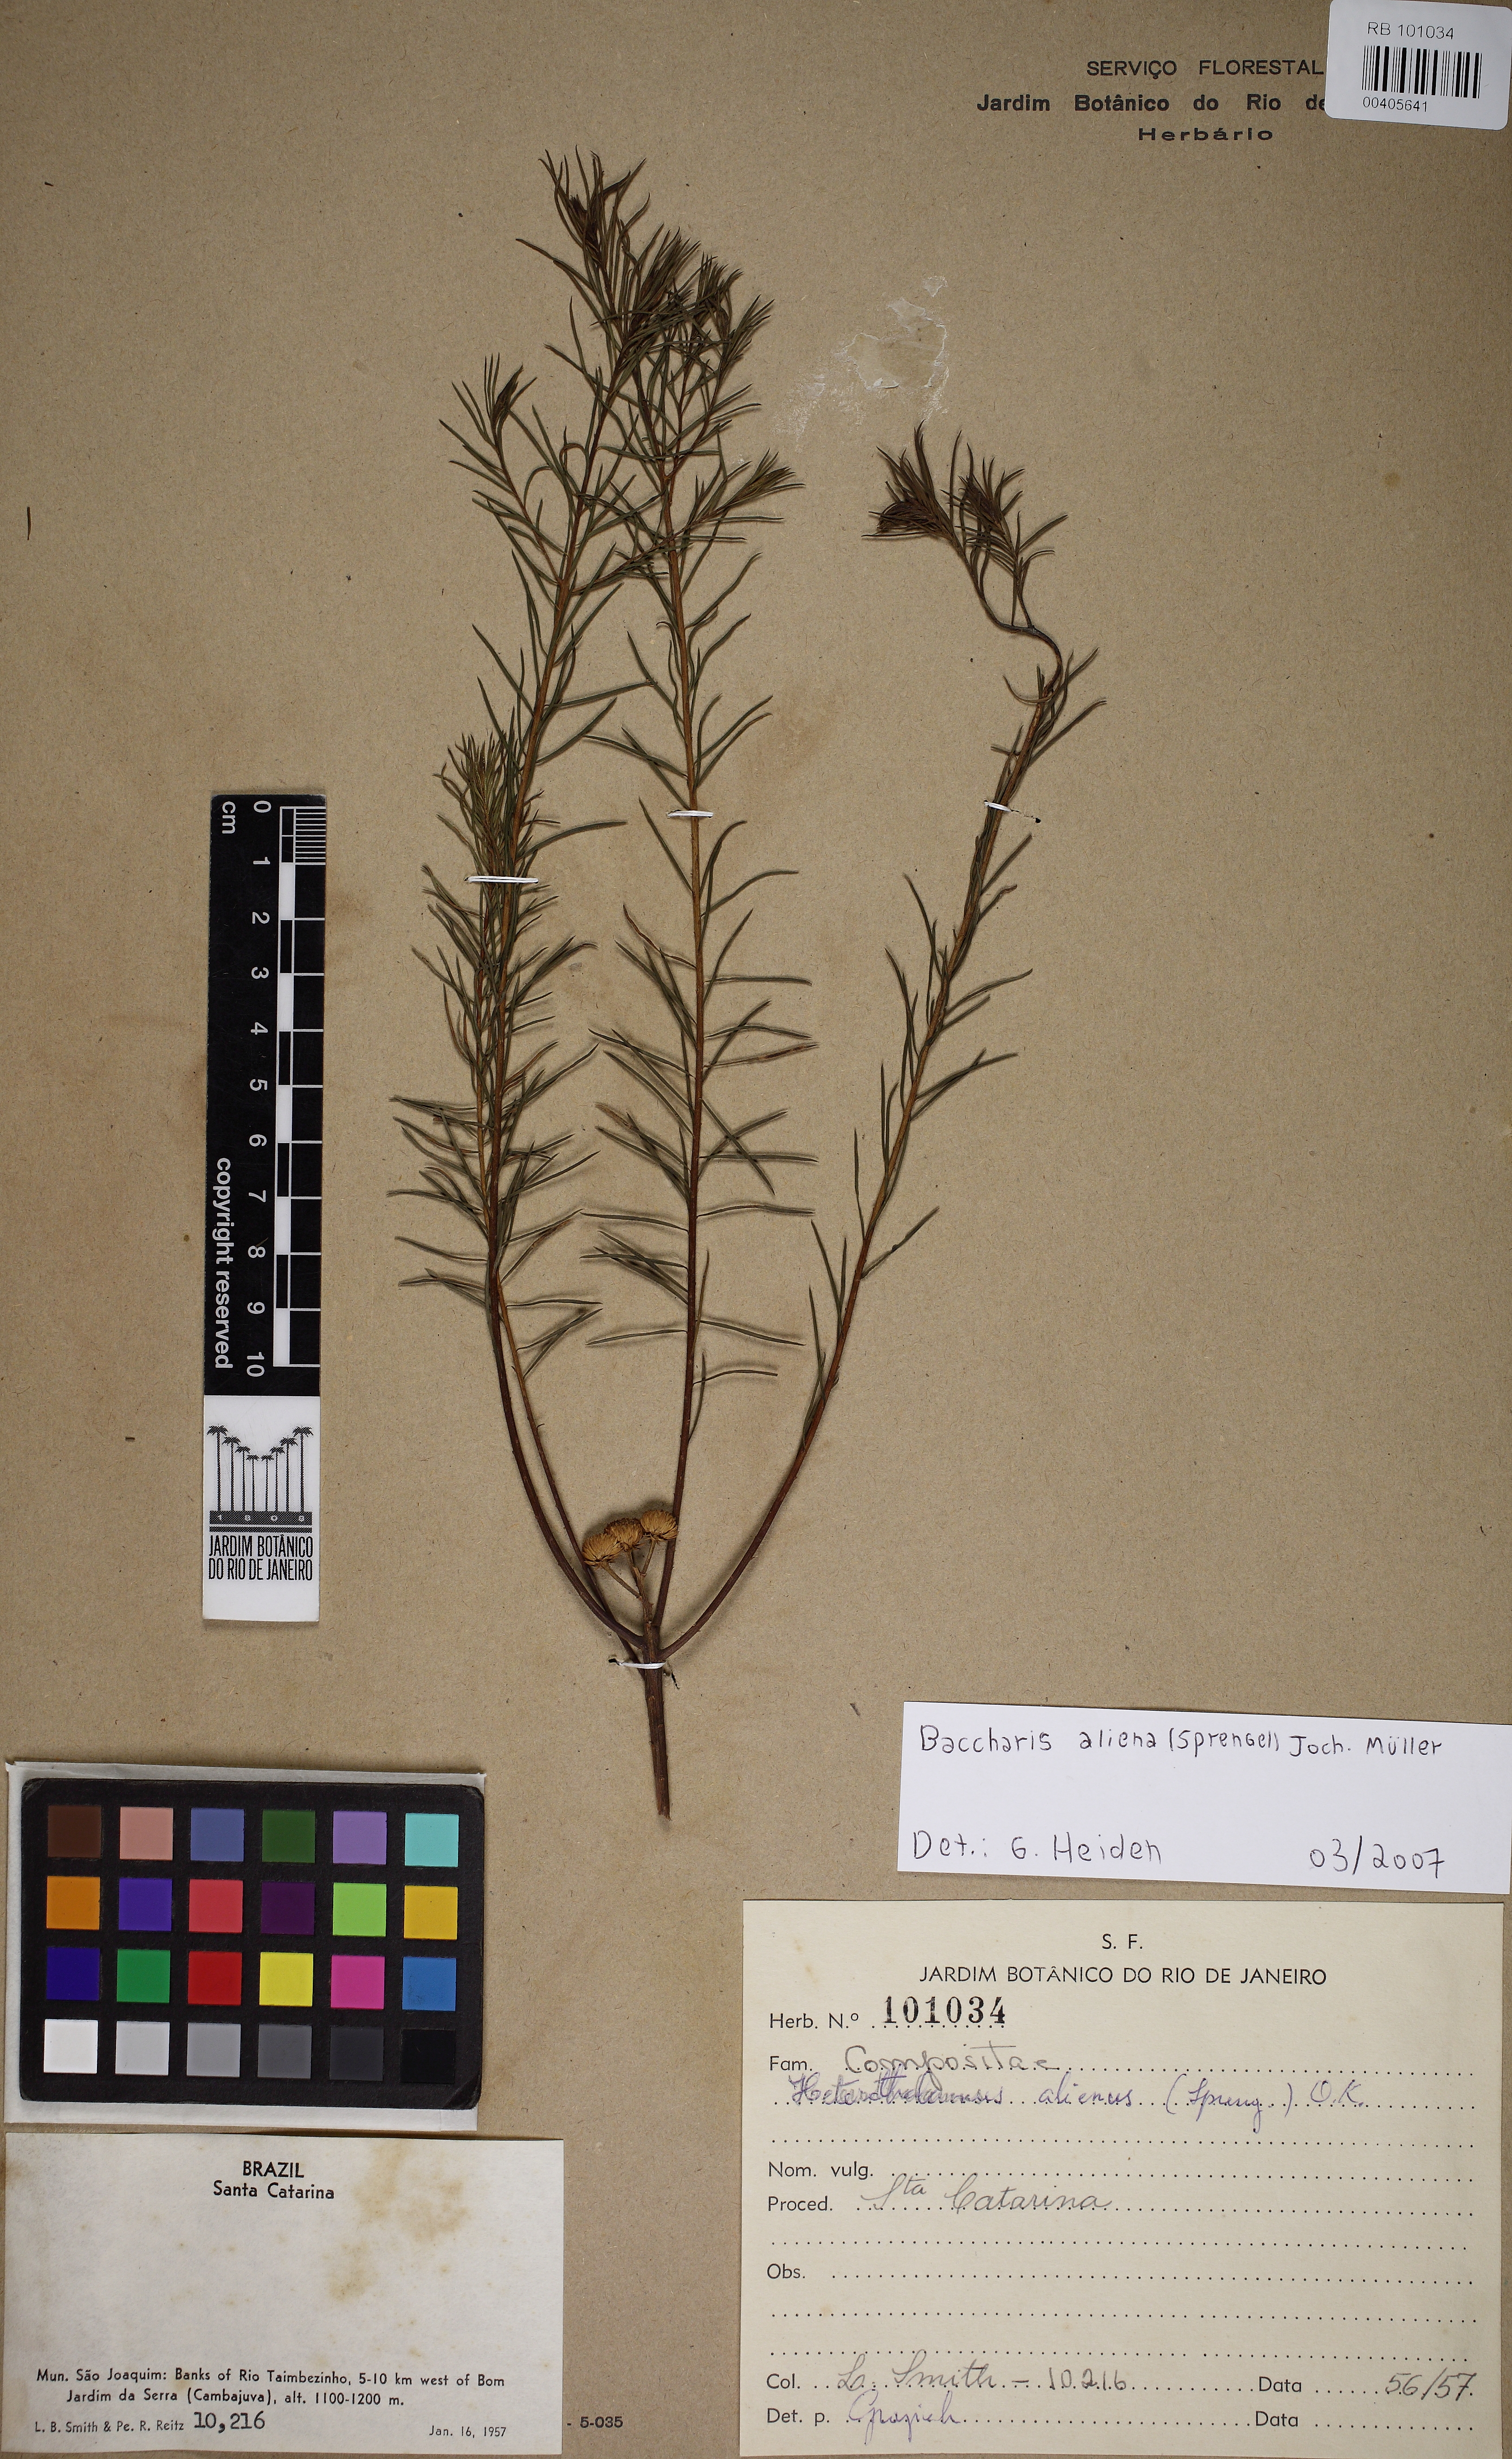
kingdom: Plantae
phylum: Tracheophyta
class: Magnoliopsida
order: Asterales
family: Asteraceae
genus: Baccharis
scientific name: Baccharis aliena
